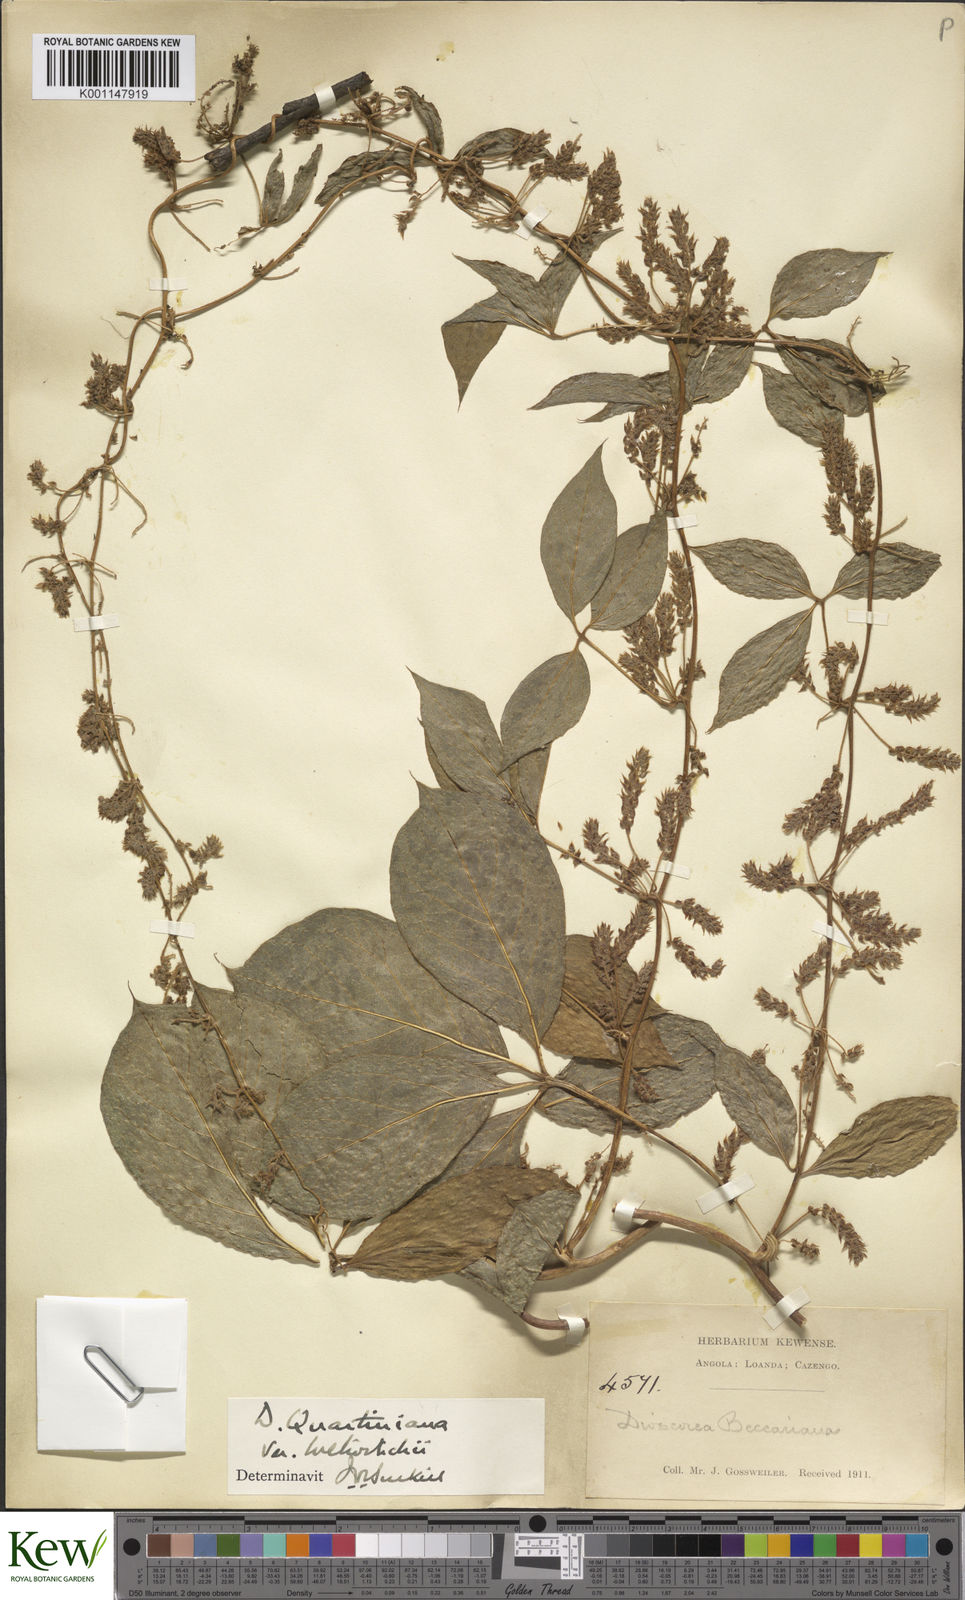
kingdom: Plantae
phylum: Tracheophyta
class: Liliopsida
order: Dioscoreales
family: Dioscoreaceae
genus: Dioscorea
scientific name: Dioscorea quartiniana
